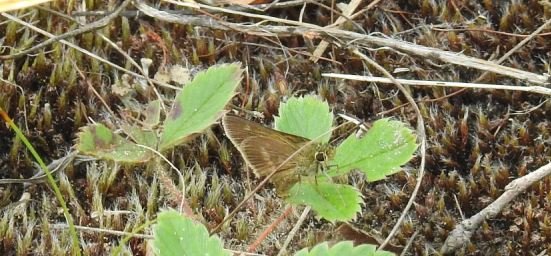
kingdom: Animalia
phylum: Arthropoda
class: Insecta
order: Lepidoptera
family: Hesperiidae
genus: Euphyes
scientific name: Euphyes vestris
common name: Dun Skipper
